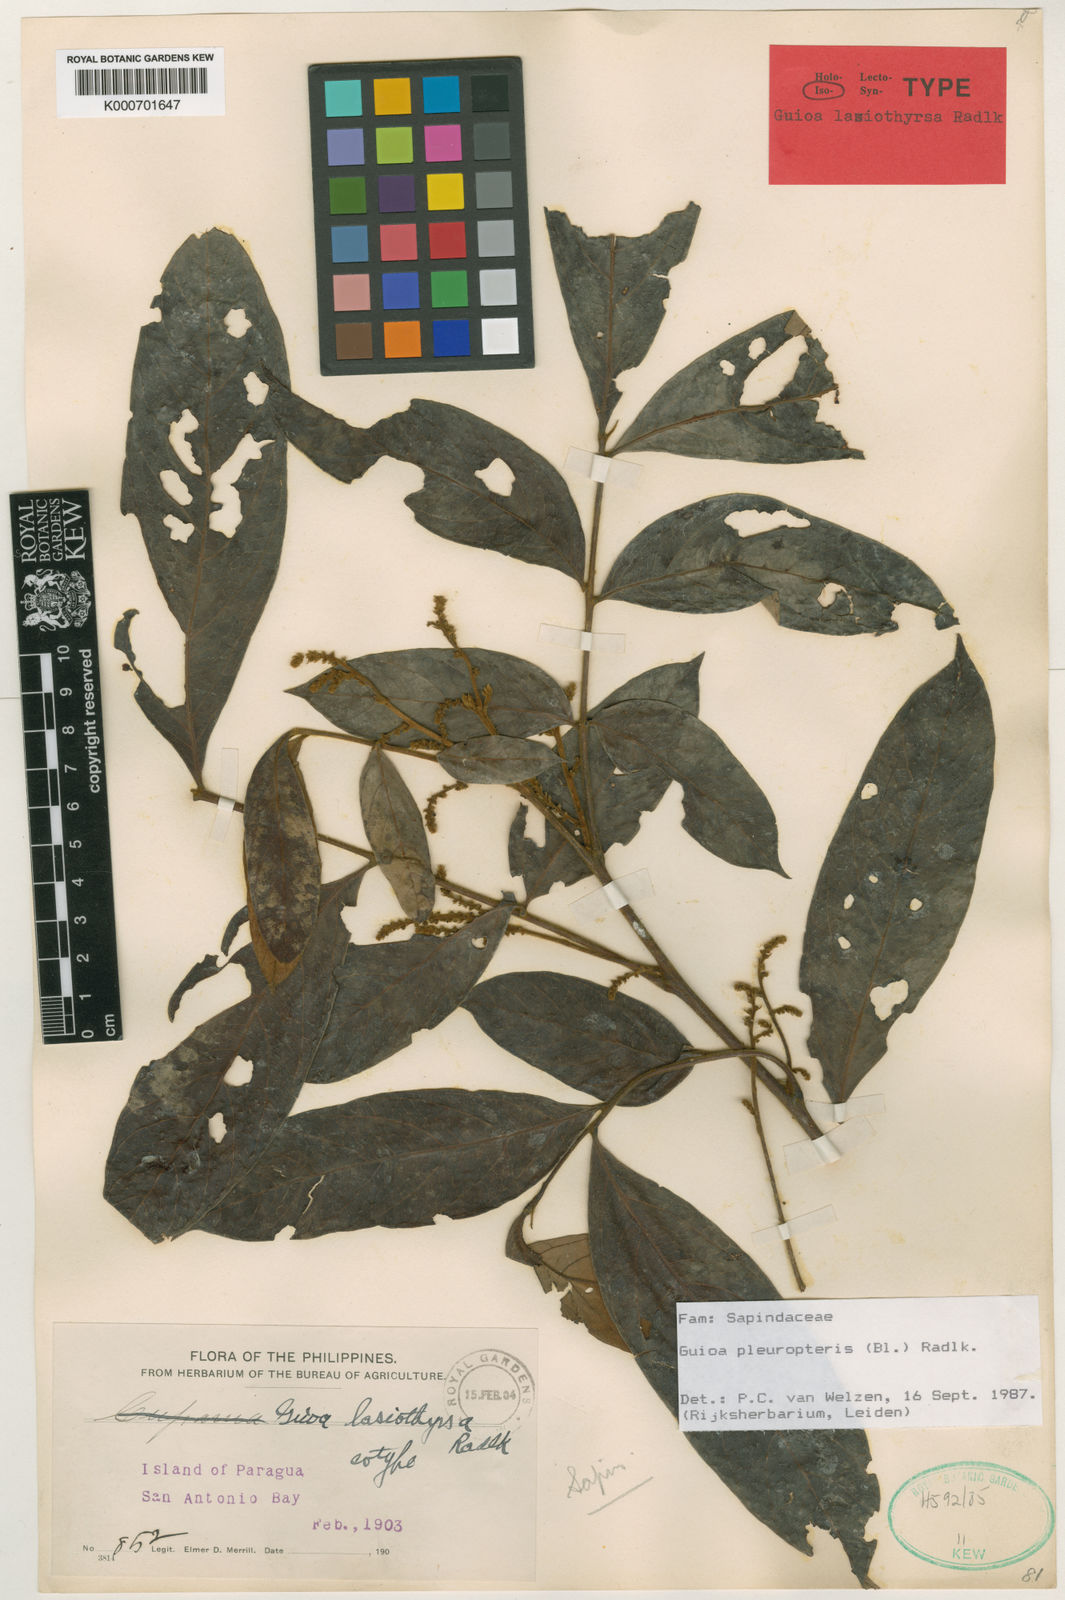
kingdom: Plantae
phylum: Tracheophyta
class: Magnoliopsida
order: Sapindales
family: Sapindaceae
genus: Guioa
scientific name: Guioa pleuropteris
